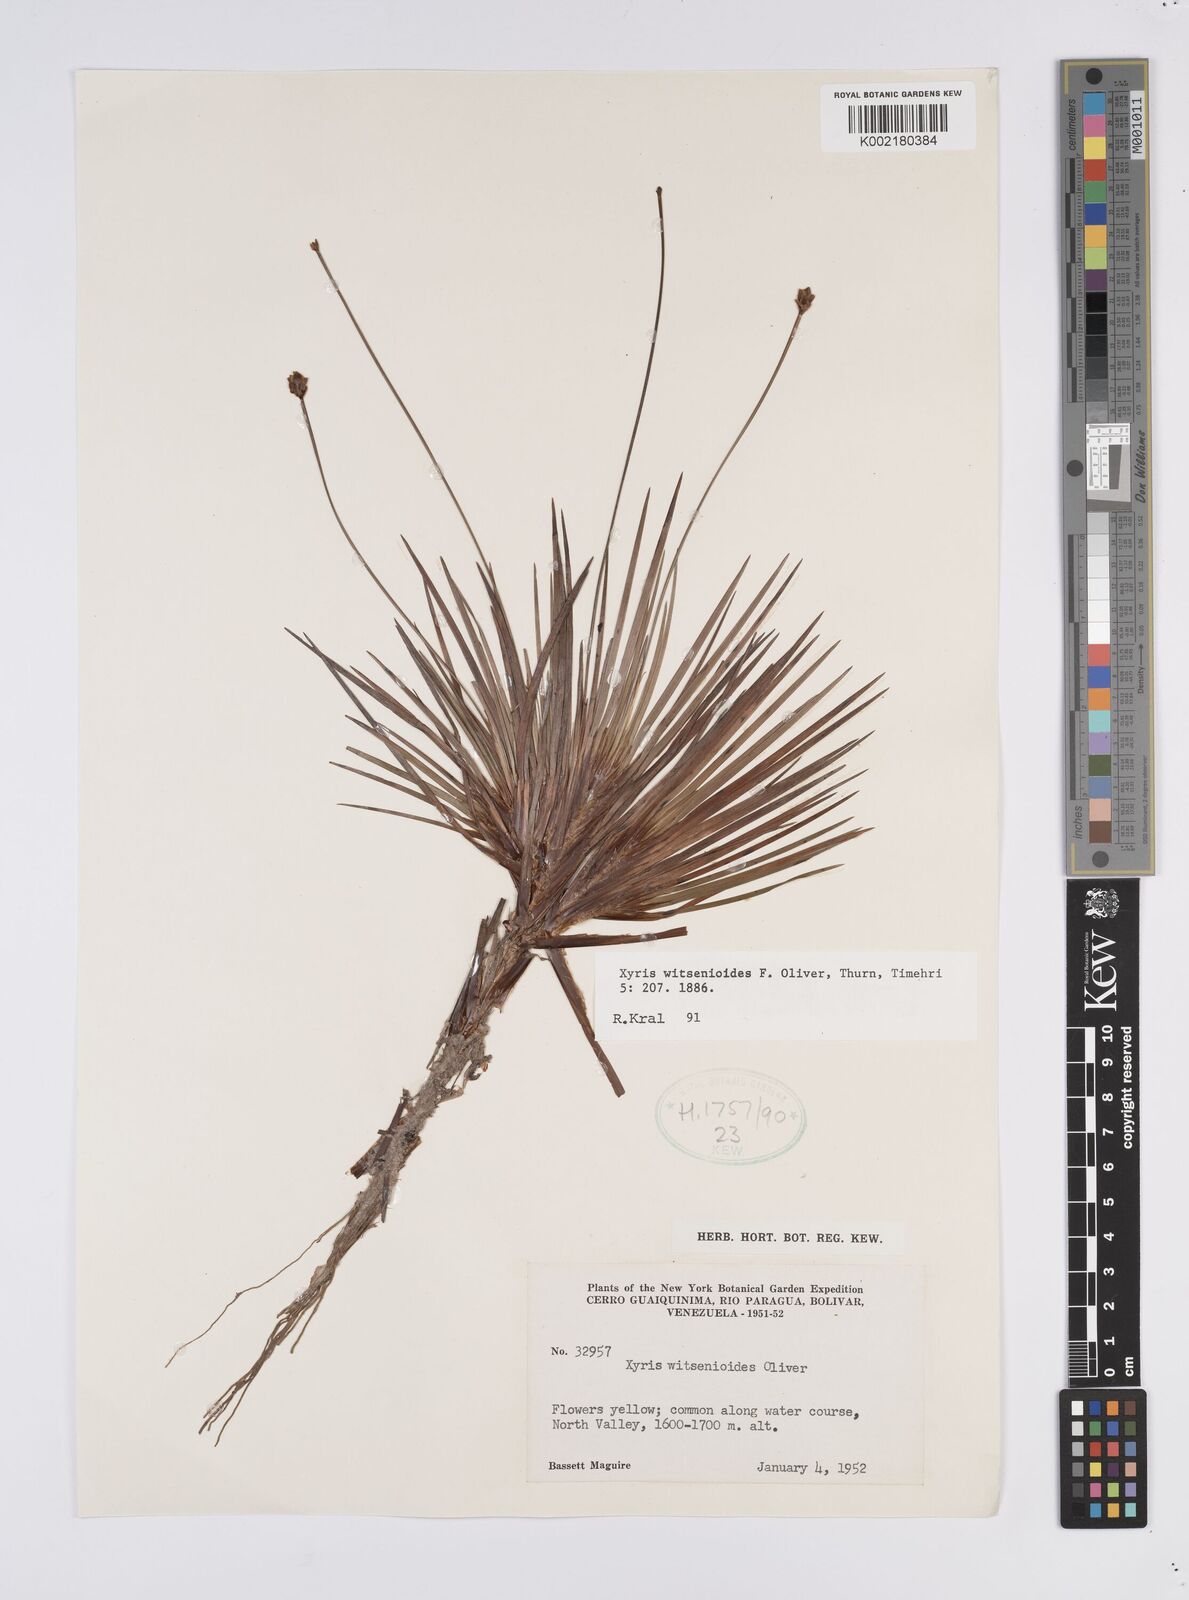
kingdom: Plantae
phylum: Tracheophyta
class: Liliopsida
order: Poales
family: Xyridaceae
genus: Xyris
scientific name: Xyris witsenioides
